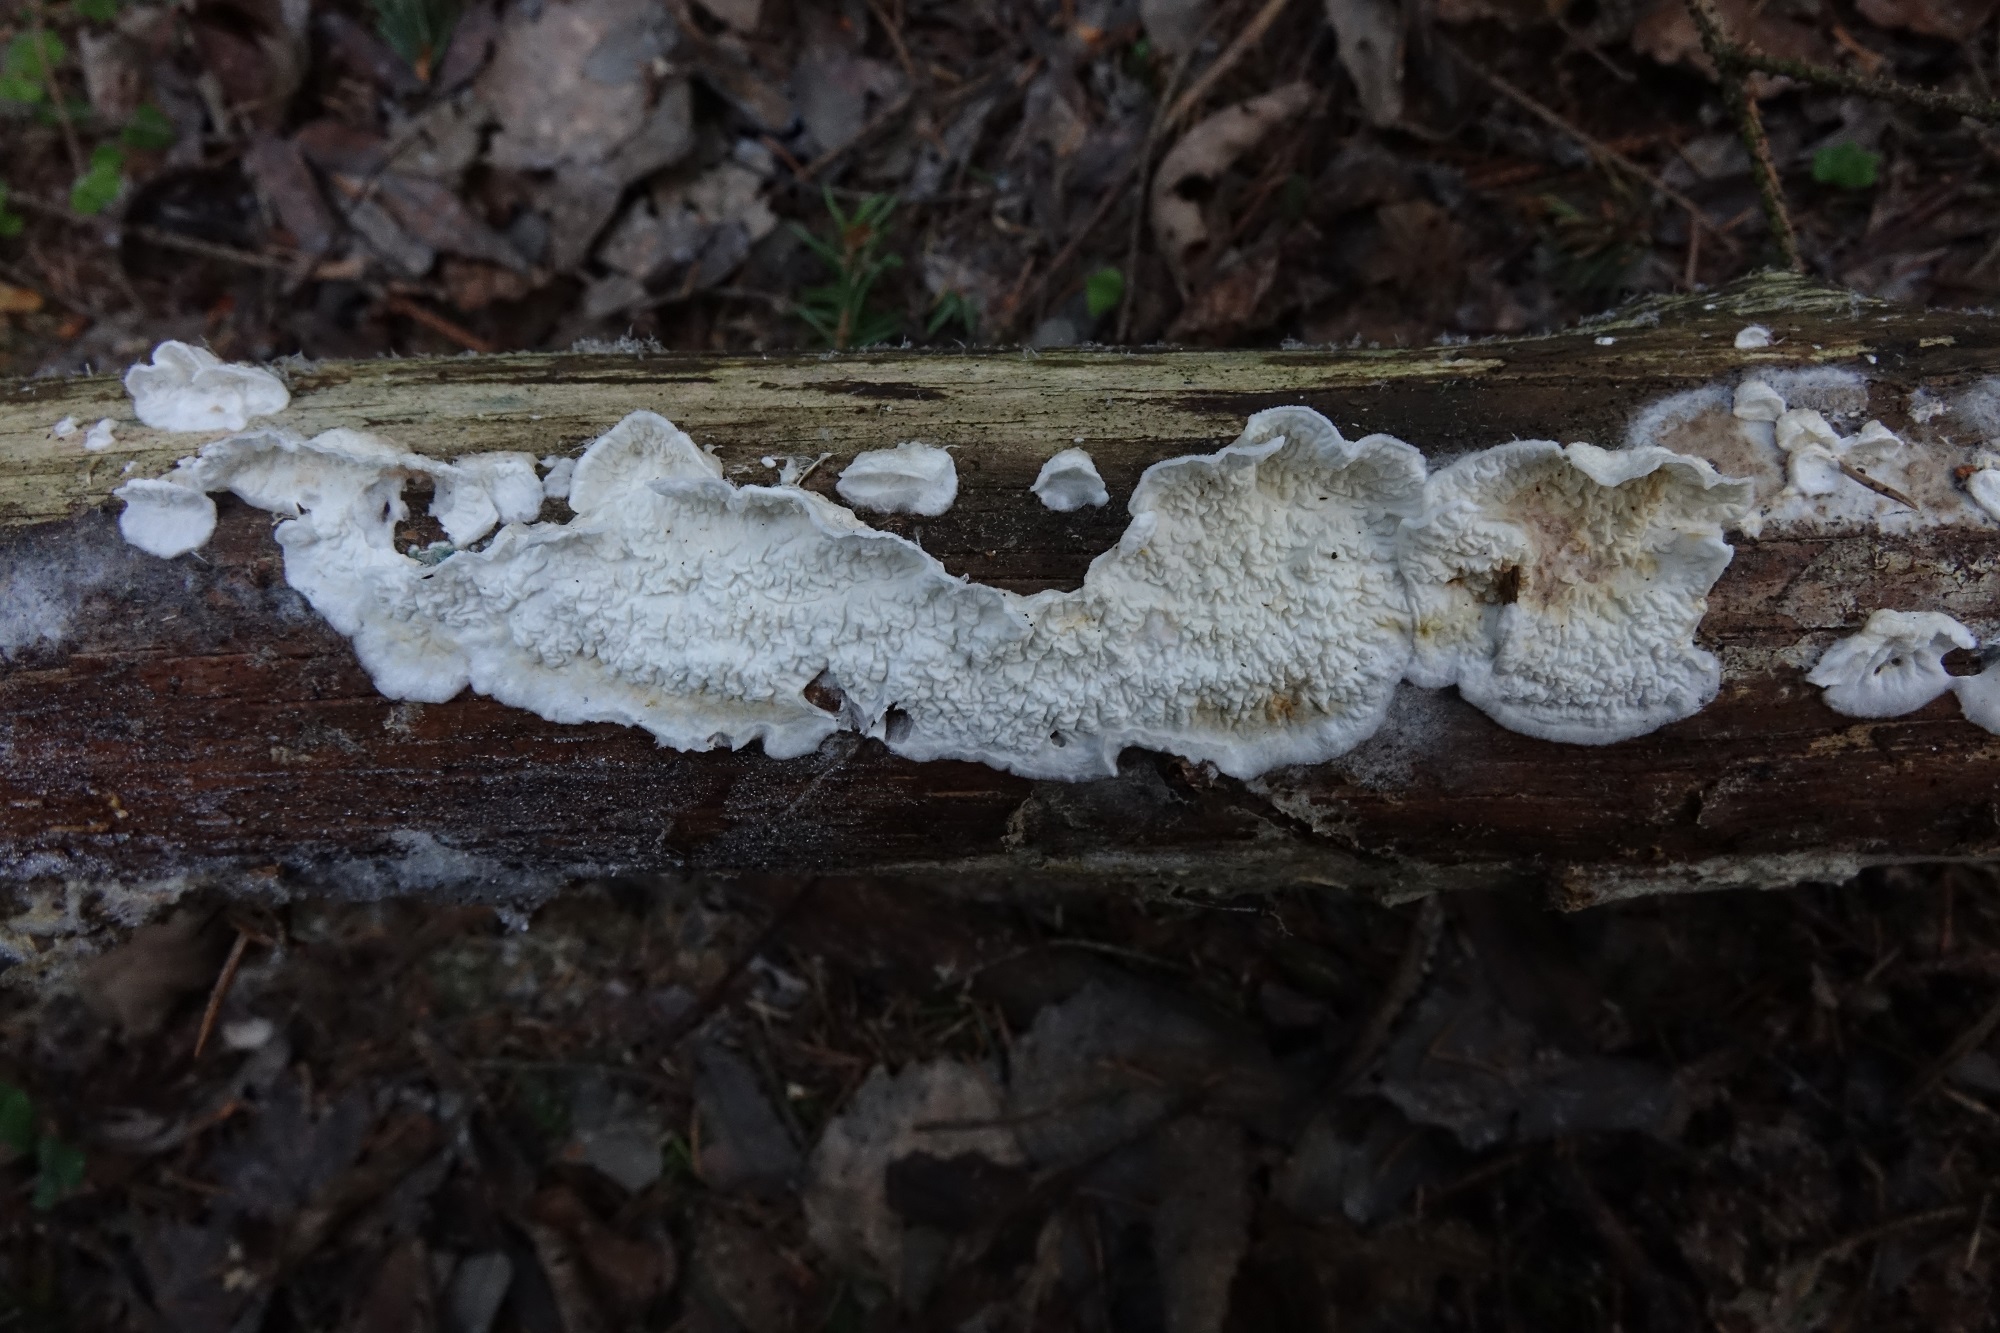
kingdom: Fungi
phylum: Basidiomycota
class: Agaricomycetes
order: Agaricales
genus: Plicatura
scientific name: Plicatura nivea
